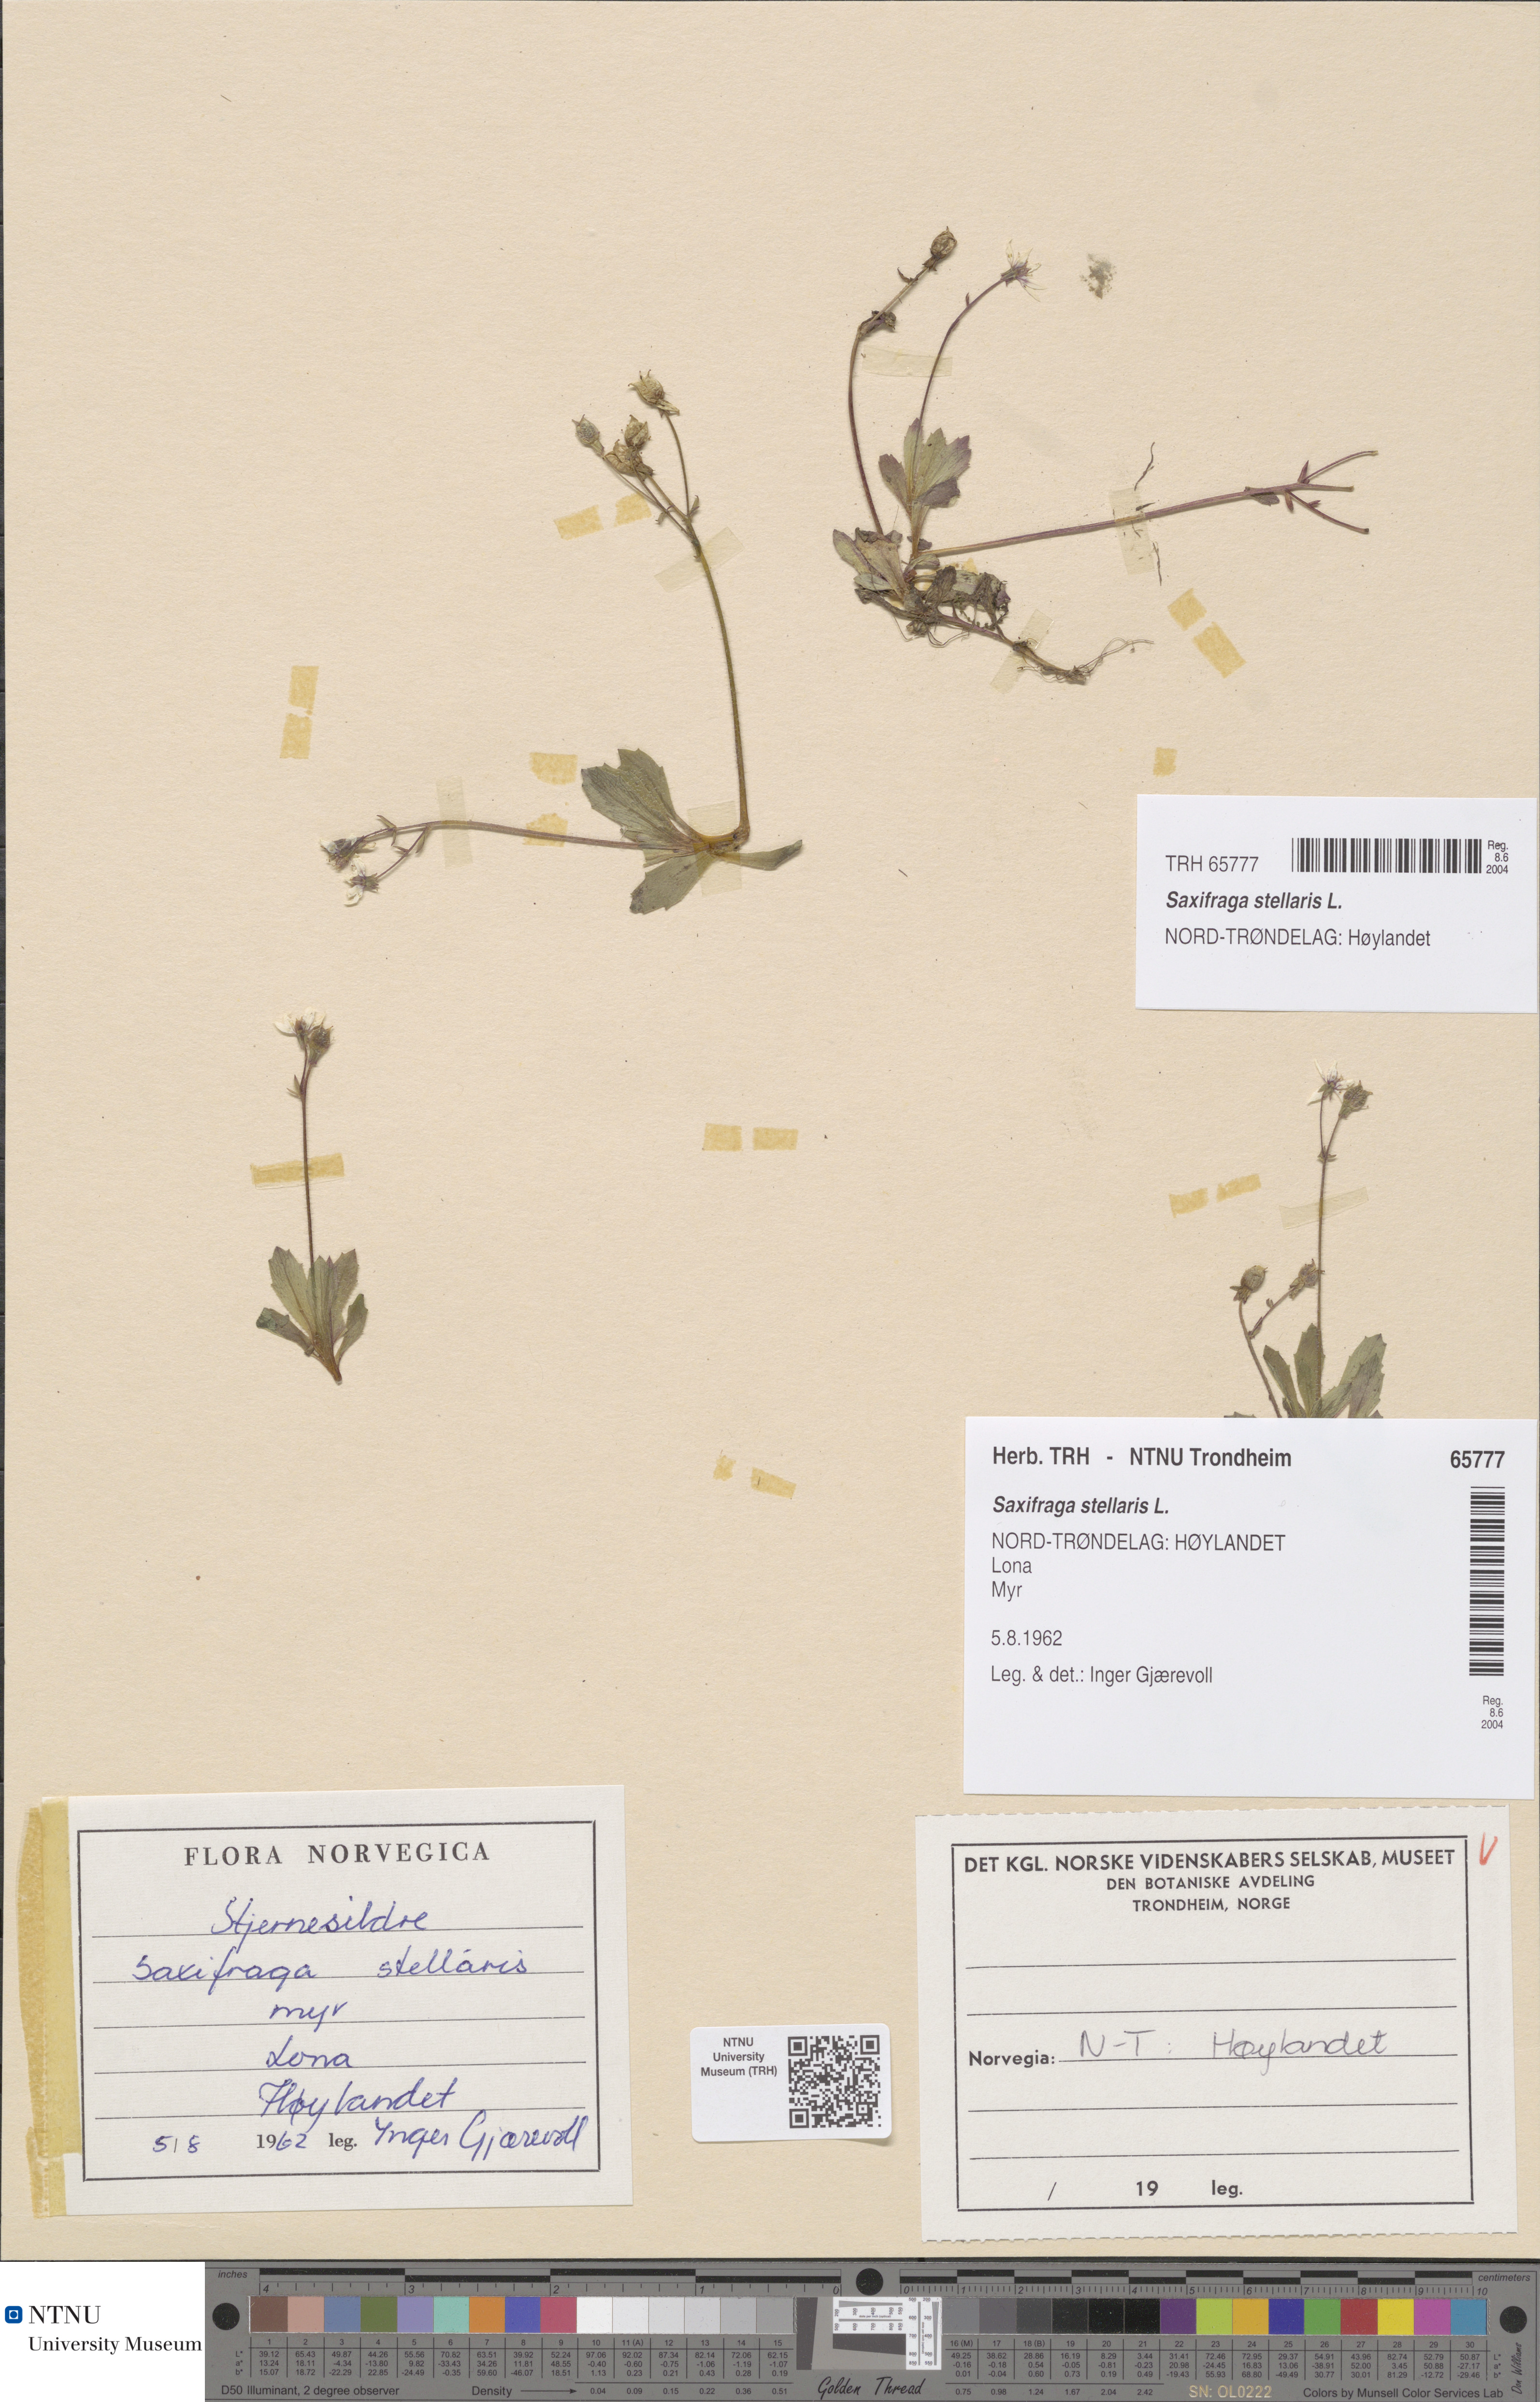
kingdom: Plantae
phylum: Tracheophyta
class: Magnoliopsida
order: Saxifragales
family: Saxifragaceae
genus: Micranthes
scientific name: Micranthes stellaris
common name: Starry saxifrage
